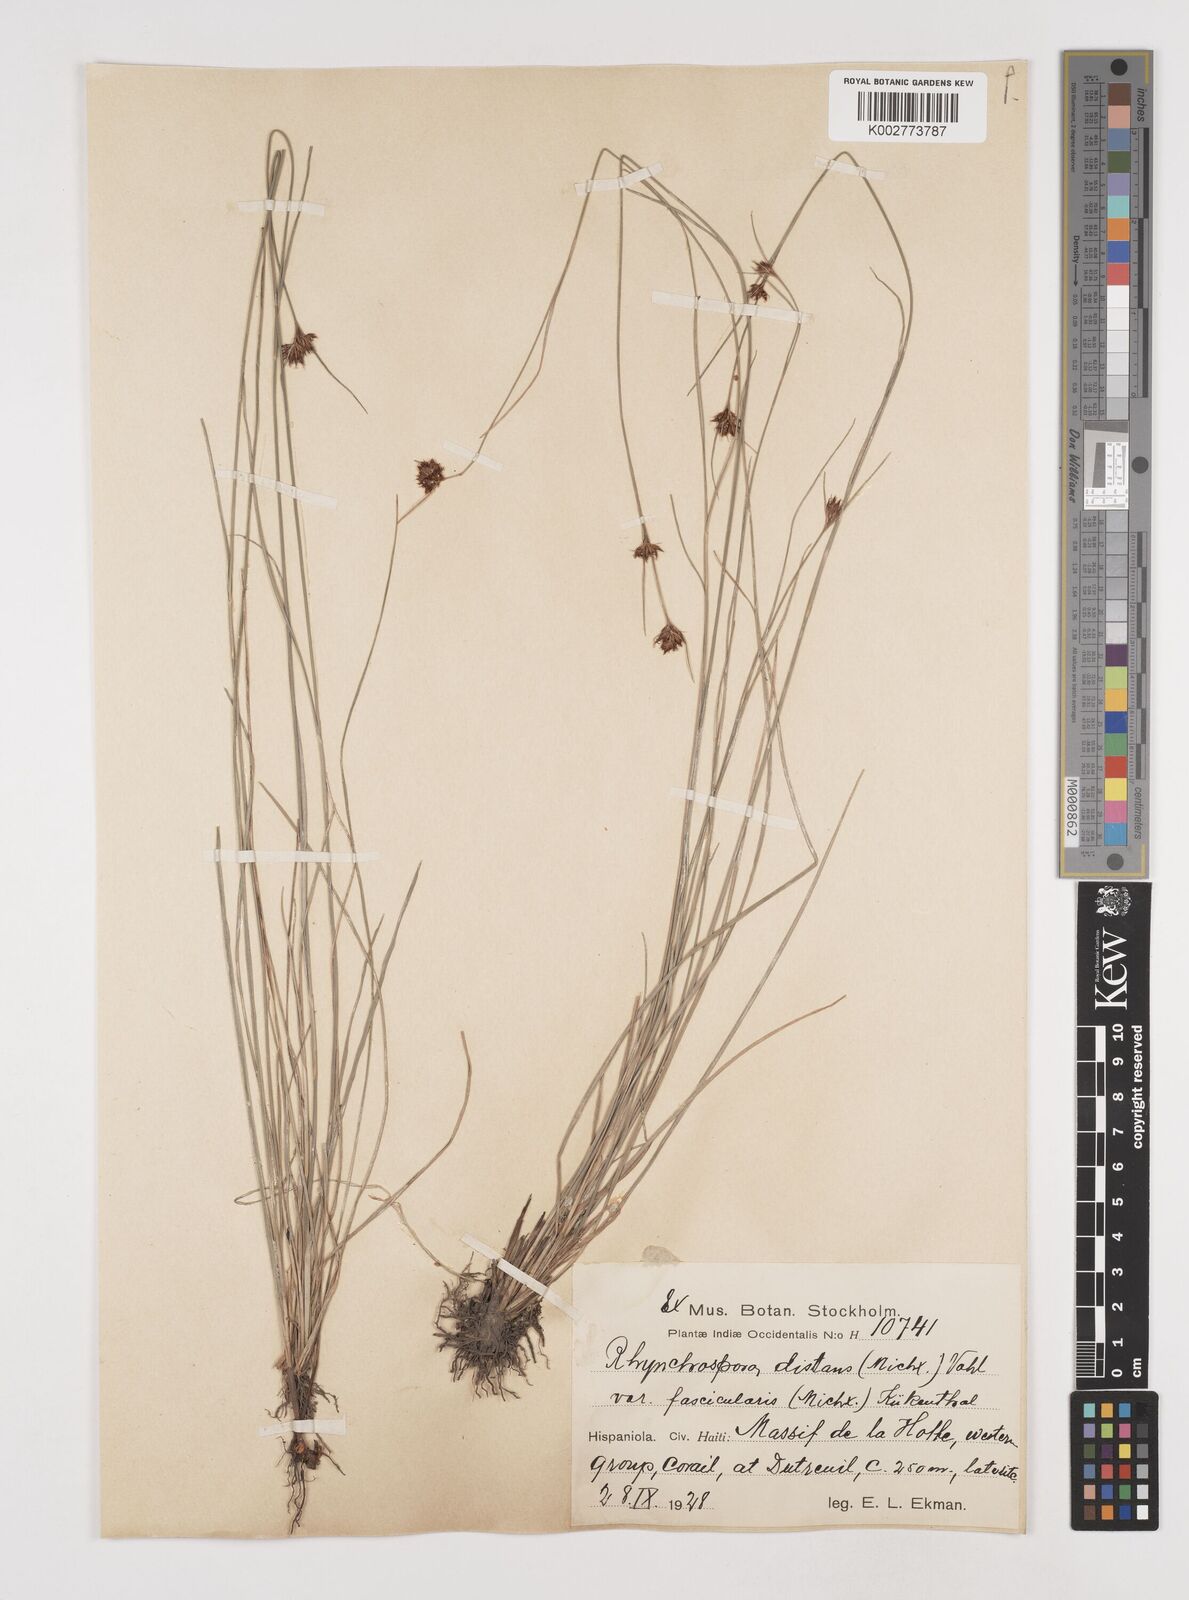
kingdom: Plantae
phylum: Tracheophyta
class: Liliopsida
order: Poales
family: Cyperaceae
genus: Rhynchospora
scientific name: Rhynchospora fascicularis
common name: Fascicled beak sedge
